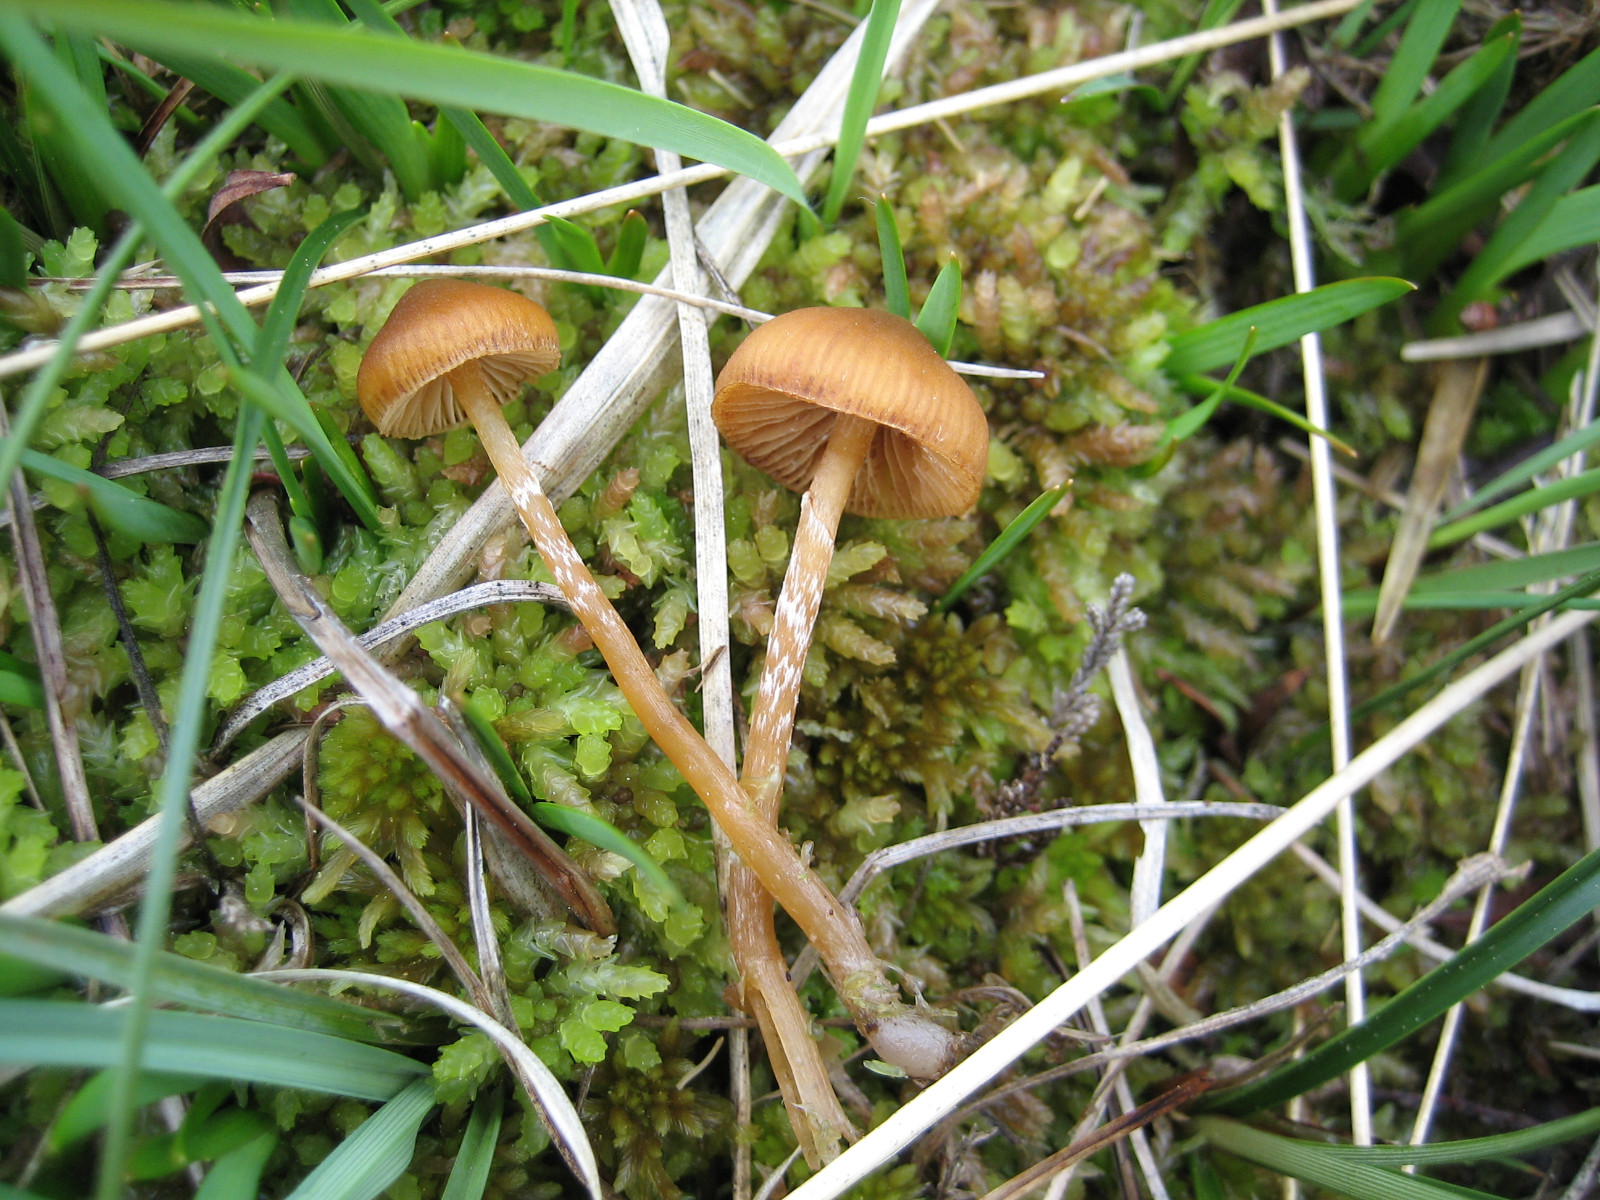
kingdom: Fungi
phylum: Basidiomycota
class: Agaricomycetes
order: Agaricales
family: Hymenogastraceae
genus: Galerina
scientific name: Galerina paludosa
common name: mose-hjelmhat
